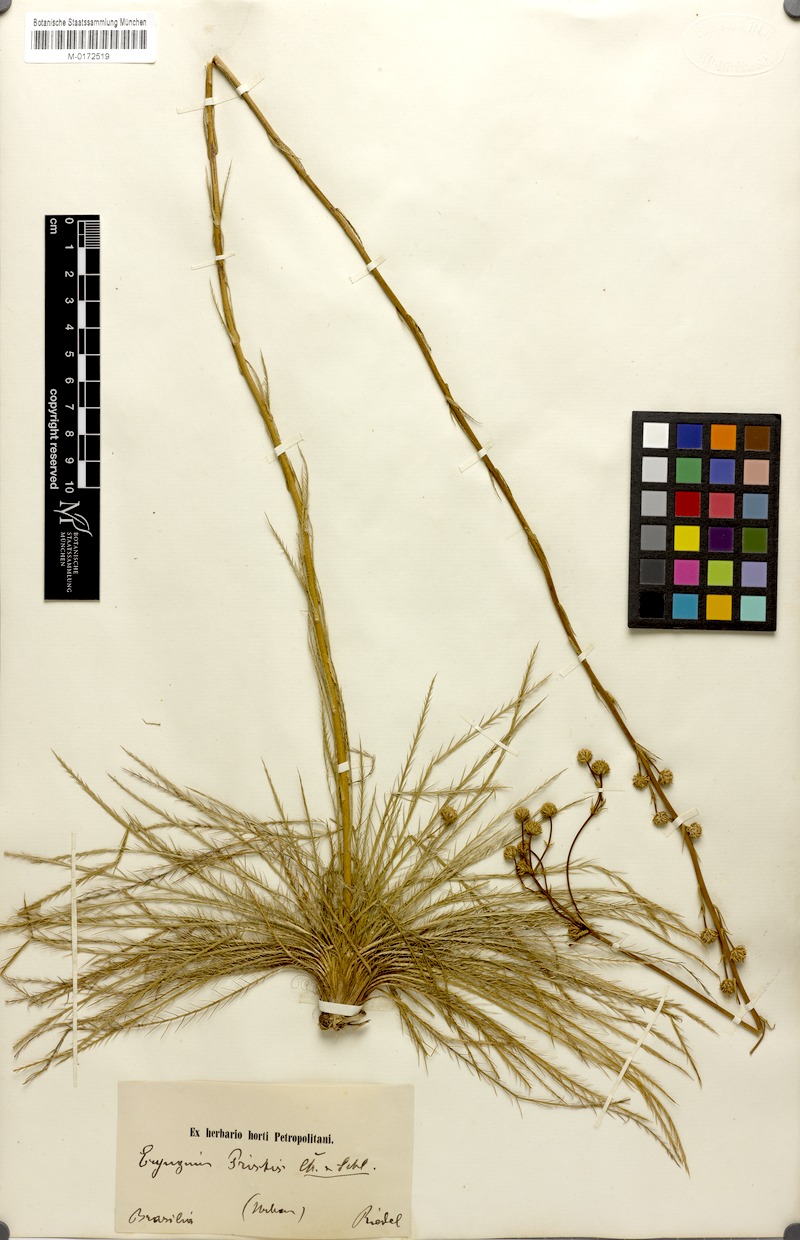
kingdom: Plantae
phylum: Tracheophyta
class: Magnoliopsida
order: Apiales
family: Apiaceae
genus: Eryngium
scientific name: Eryngium pristis
